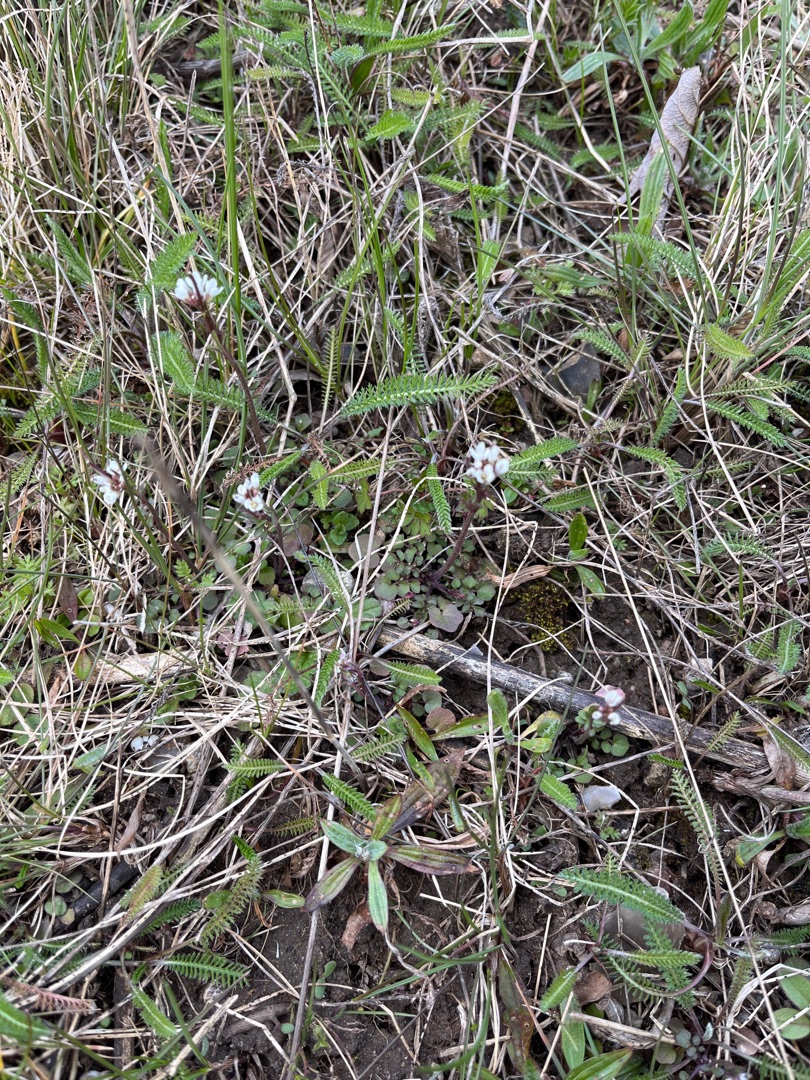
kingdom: Plantae
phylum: Tracheophyta
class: Magnoliopsida
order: Brassicales
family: Brassicaceae
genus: Cardamine
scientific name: Cardamine hirsuta
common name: Roset-springklap
